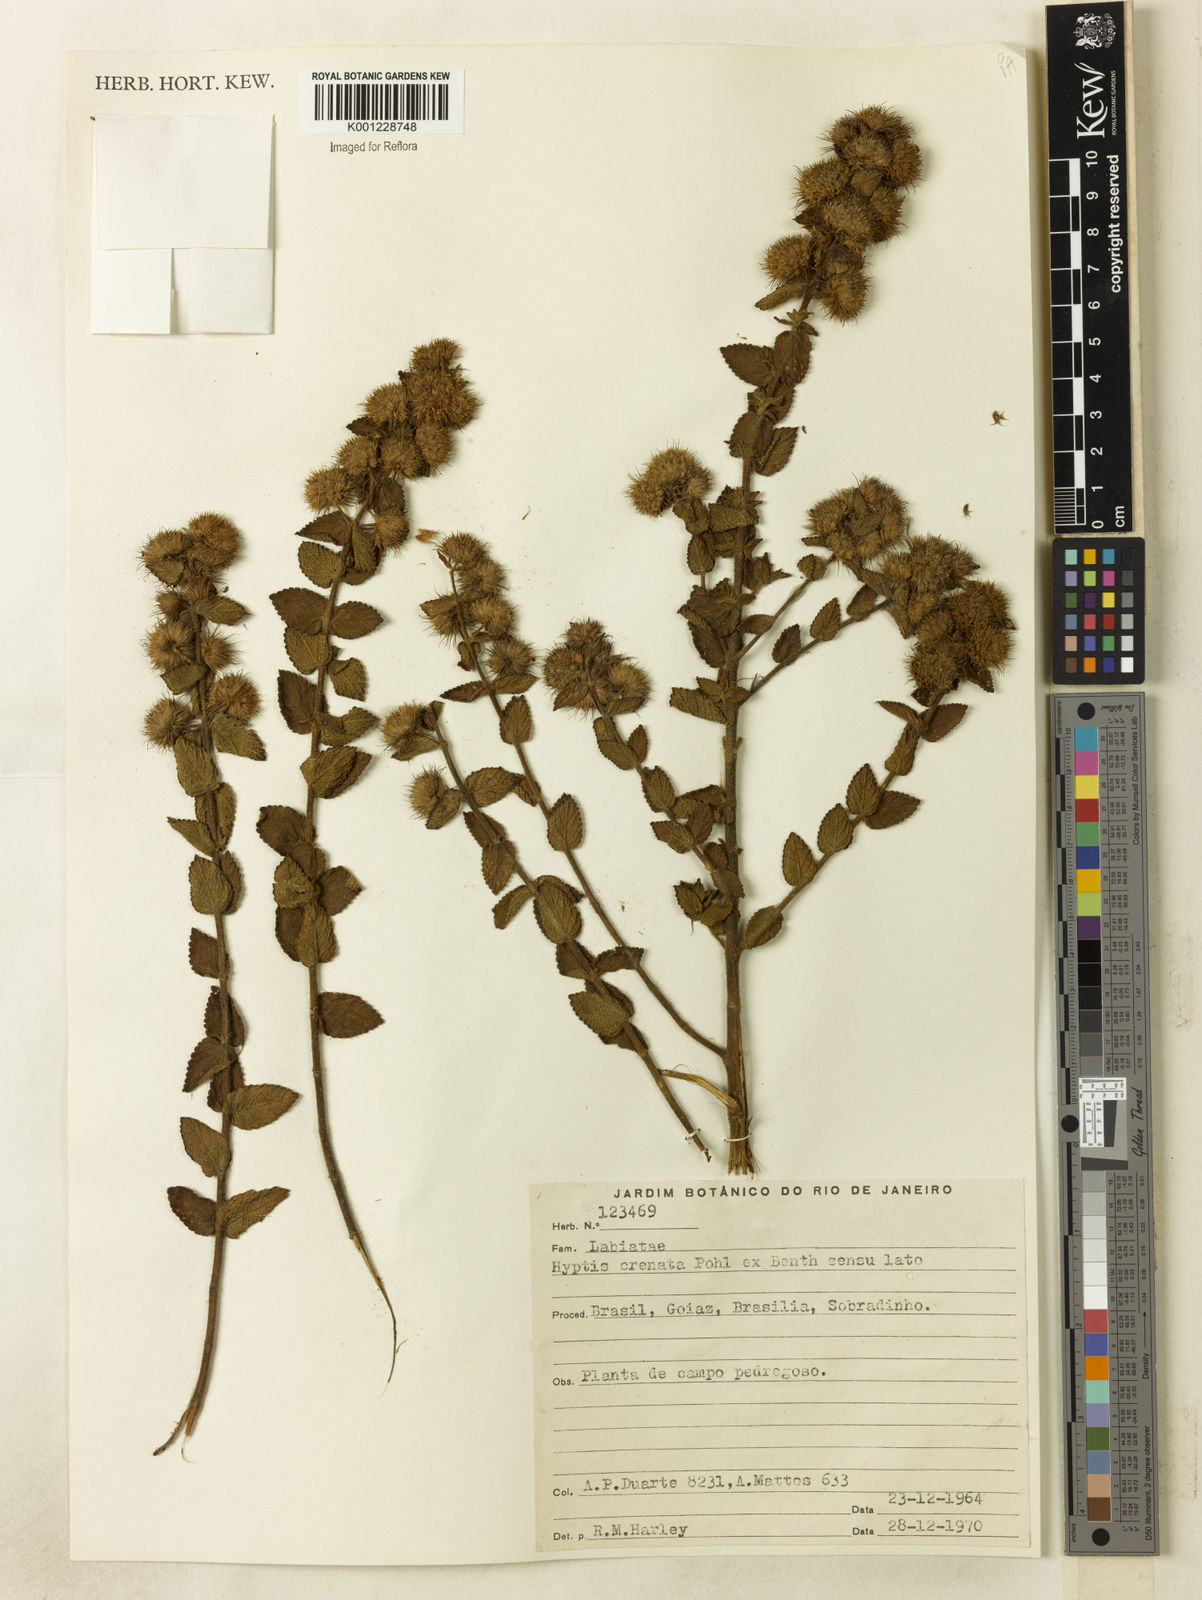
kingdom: Plantae
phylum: Tracheophyta
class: Magnoliopsida
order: Lamiales
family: Lamiaceae
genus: Hyptis
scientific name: Hyptis crenata
